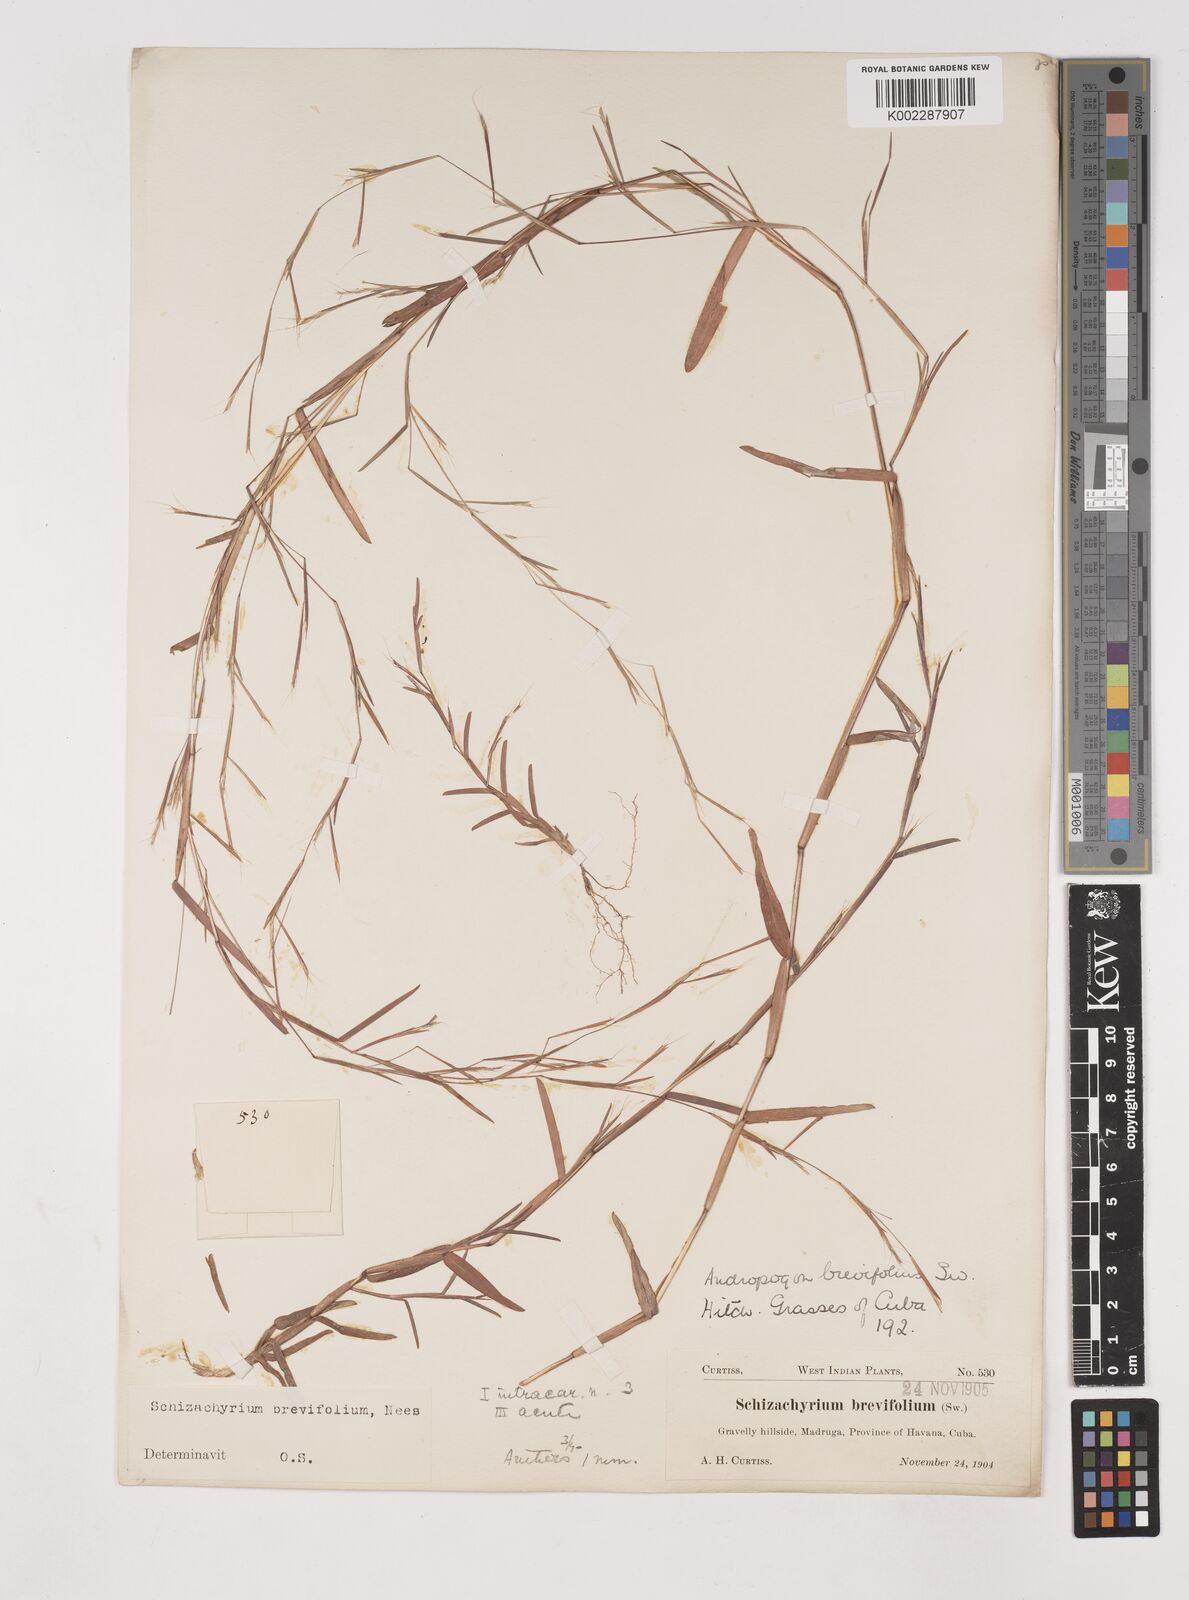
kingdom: Plantae
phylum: Tracheophyta
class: Liliopsida
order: Poales
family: Poaceae
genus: Schizachyrium
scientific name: Schizachyrium brevifolium
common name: Serillo dulce
